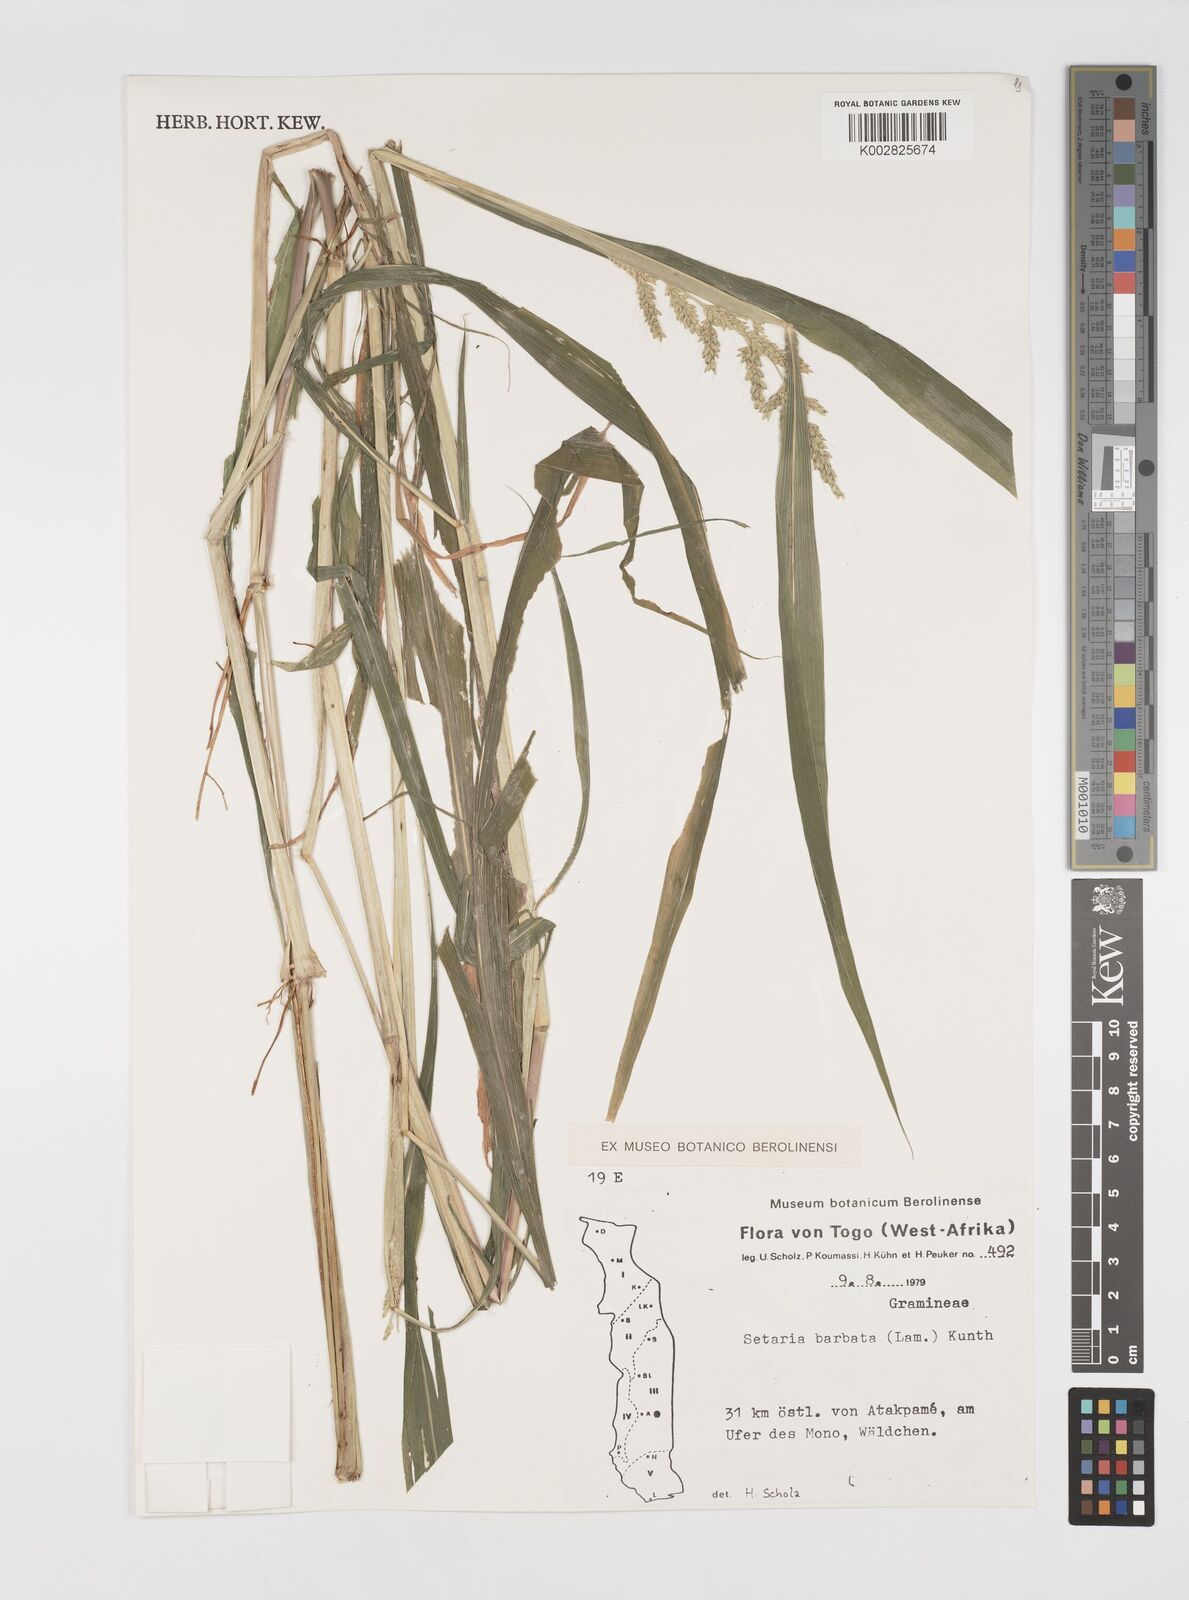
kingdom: Plantae
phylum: Tracheophyta
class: Liliopsida
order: Poales
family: Poaceae
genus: Setaria
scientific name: Setaria barbata
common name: East indian bristlegrass
